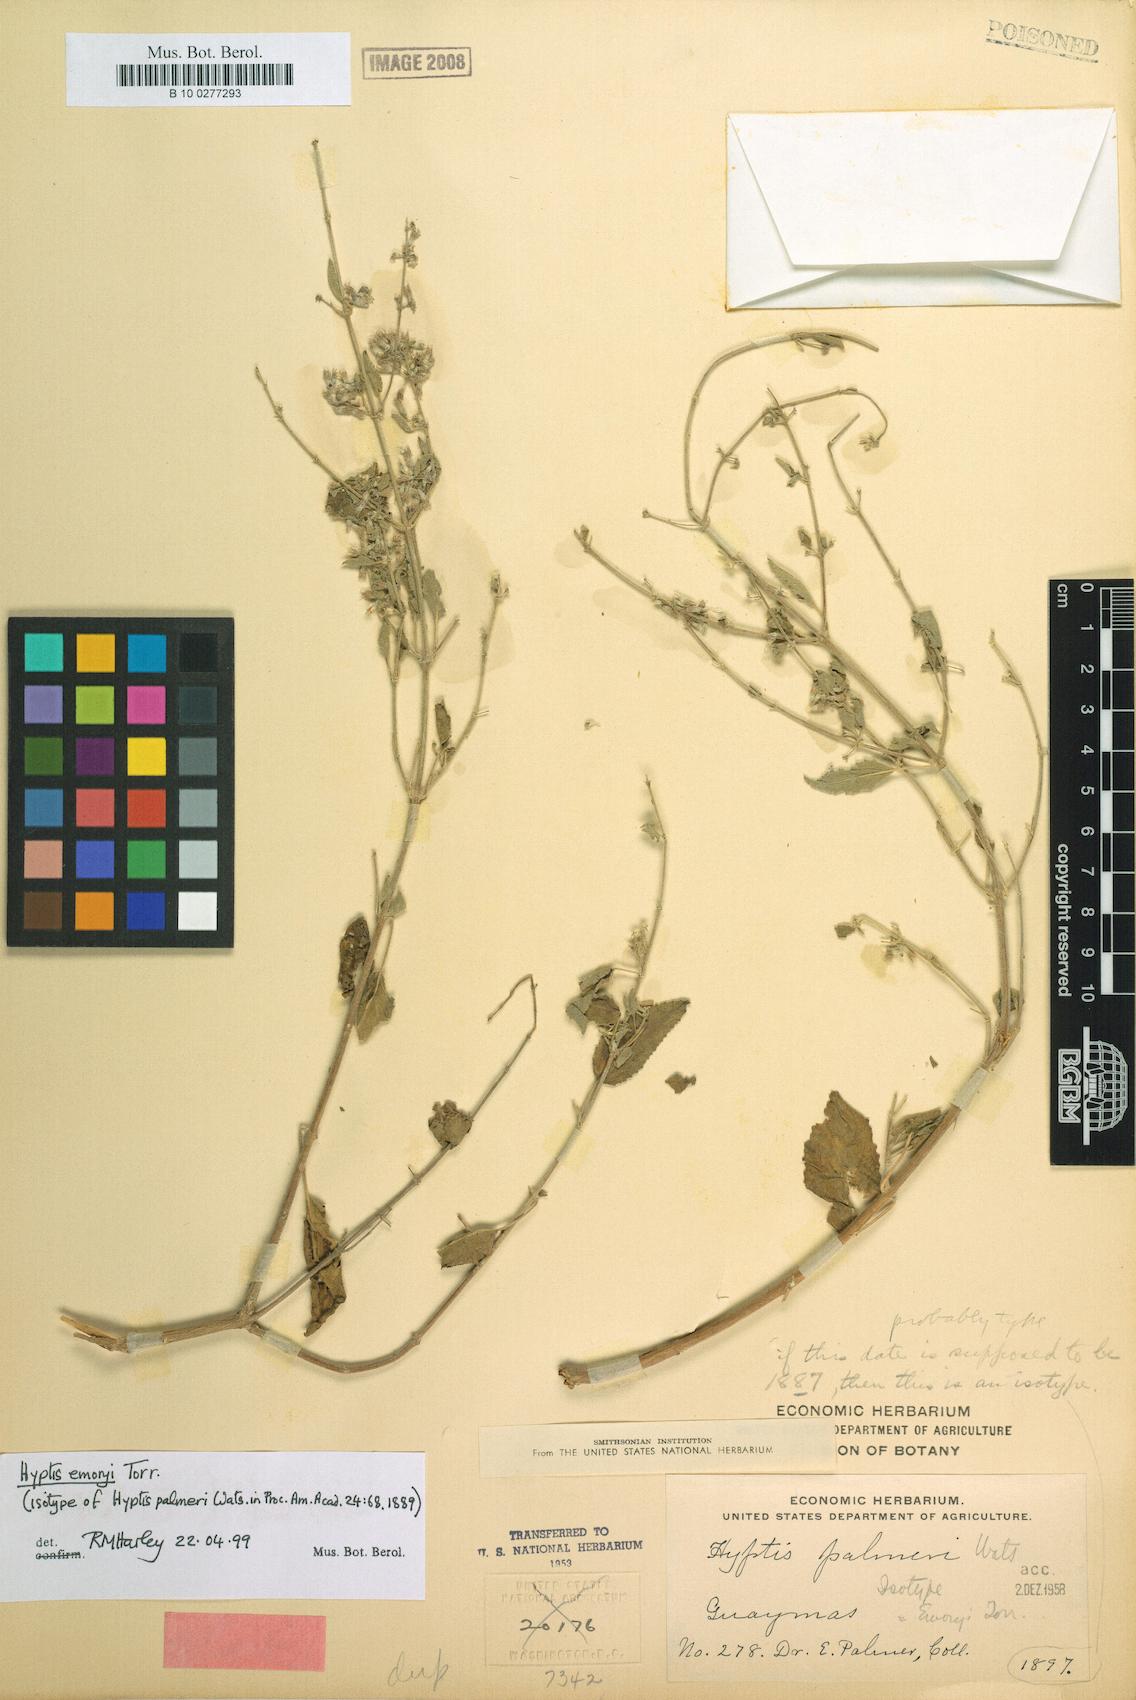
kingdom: Plantae
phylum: Tracheophyta
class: Magnoliopsida
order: Lamiales
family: Lamiaceae
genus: Condea
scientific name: Condea emoryi
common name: Chia
